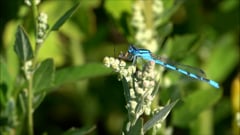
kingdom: Animalia
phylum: Arthropoda
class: Insecta
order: Odonata
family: Coenagrionidae
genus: Coenagrion
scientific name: Coenagrion puella
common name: Azure damselfly
